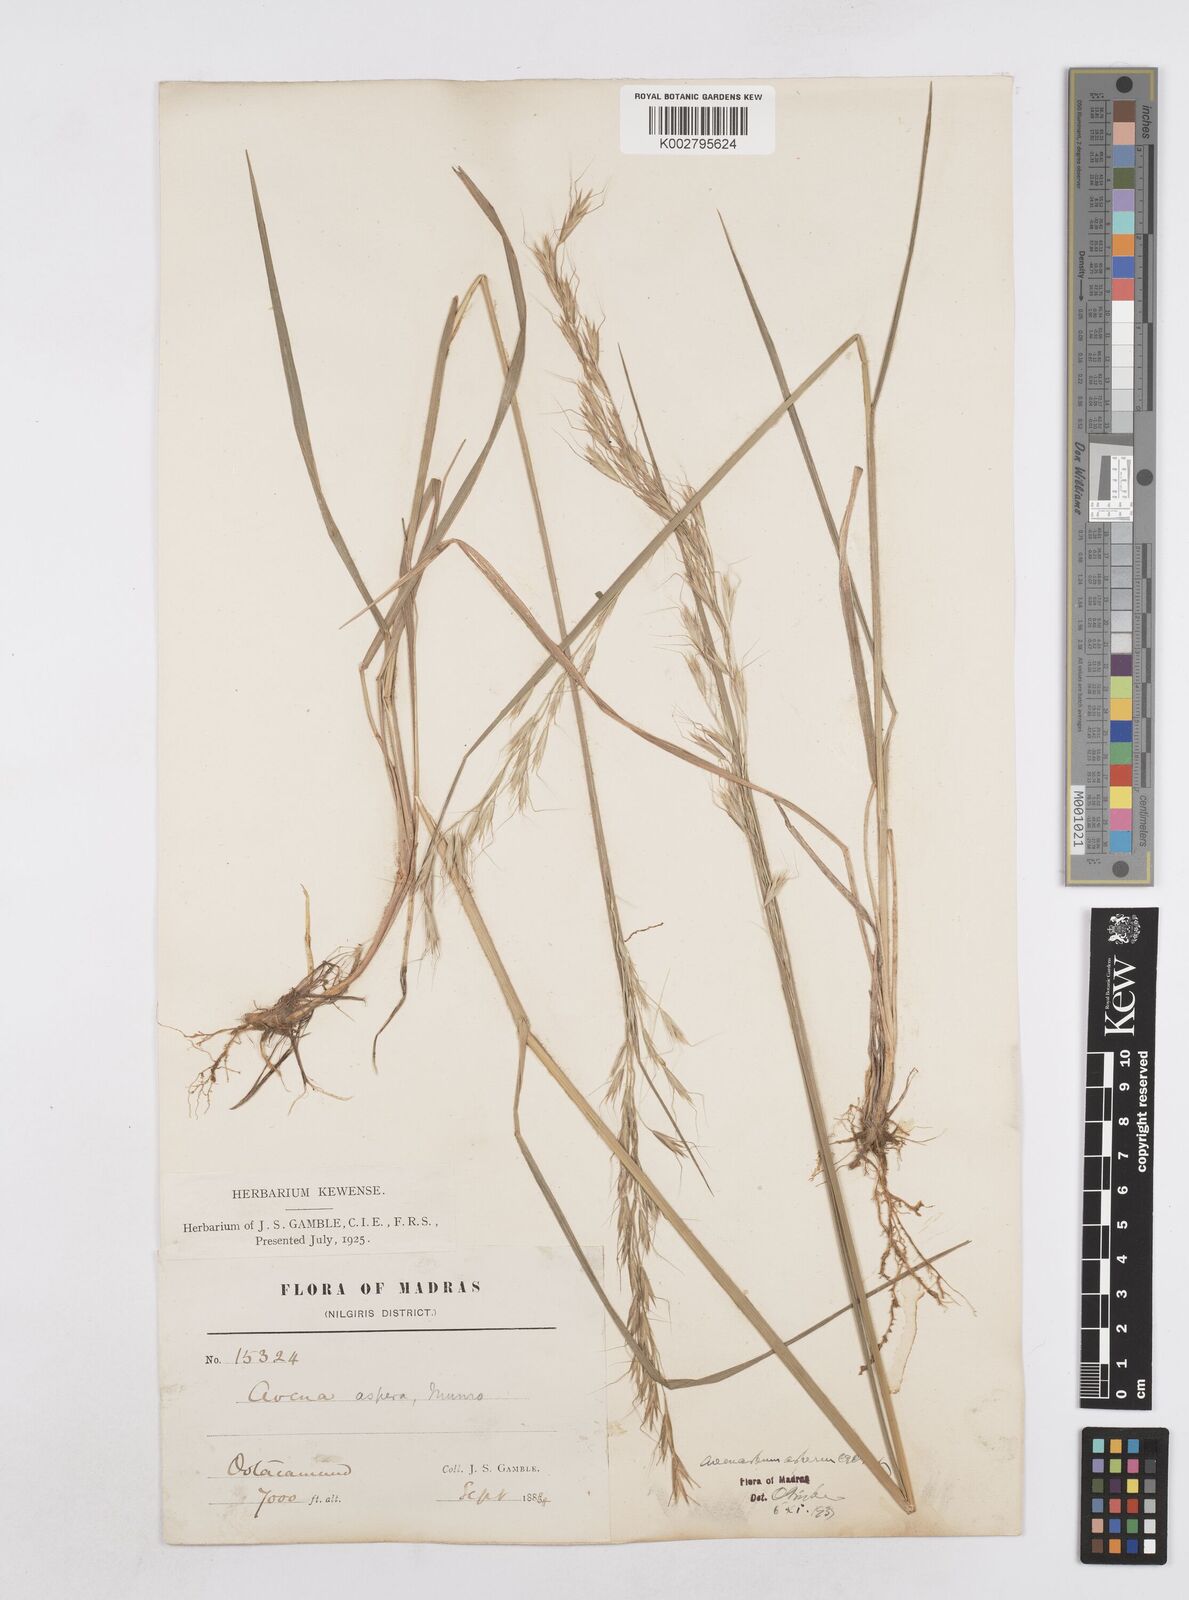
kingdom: Plantae
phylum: Tracheophyta
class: Liliopsida
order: Poales
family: Poaceae
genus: Helictotrichon
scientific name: Helictotrichon
